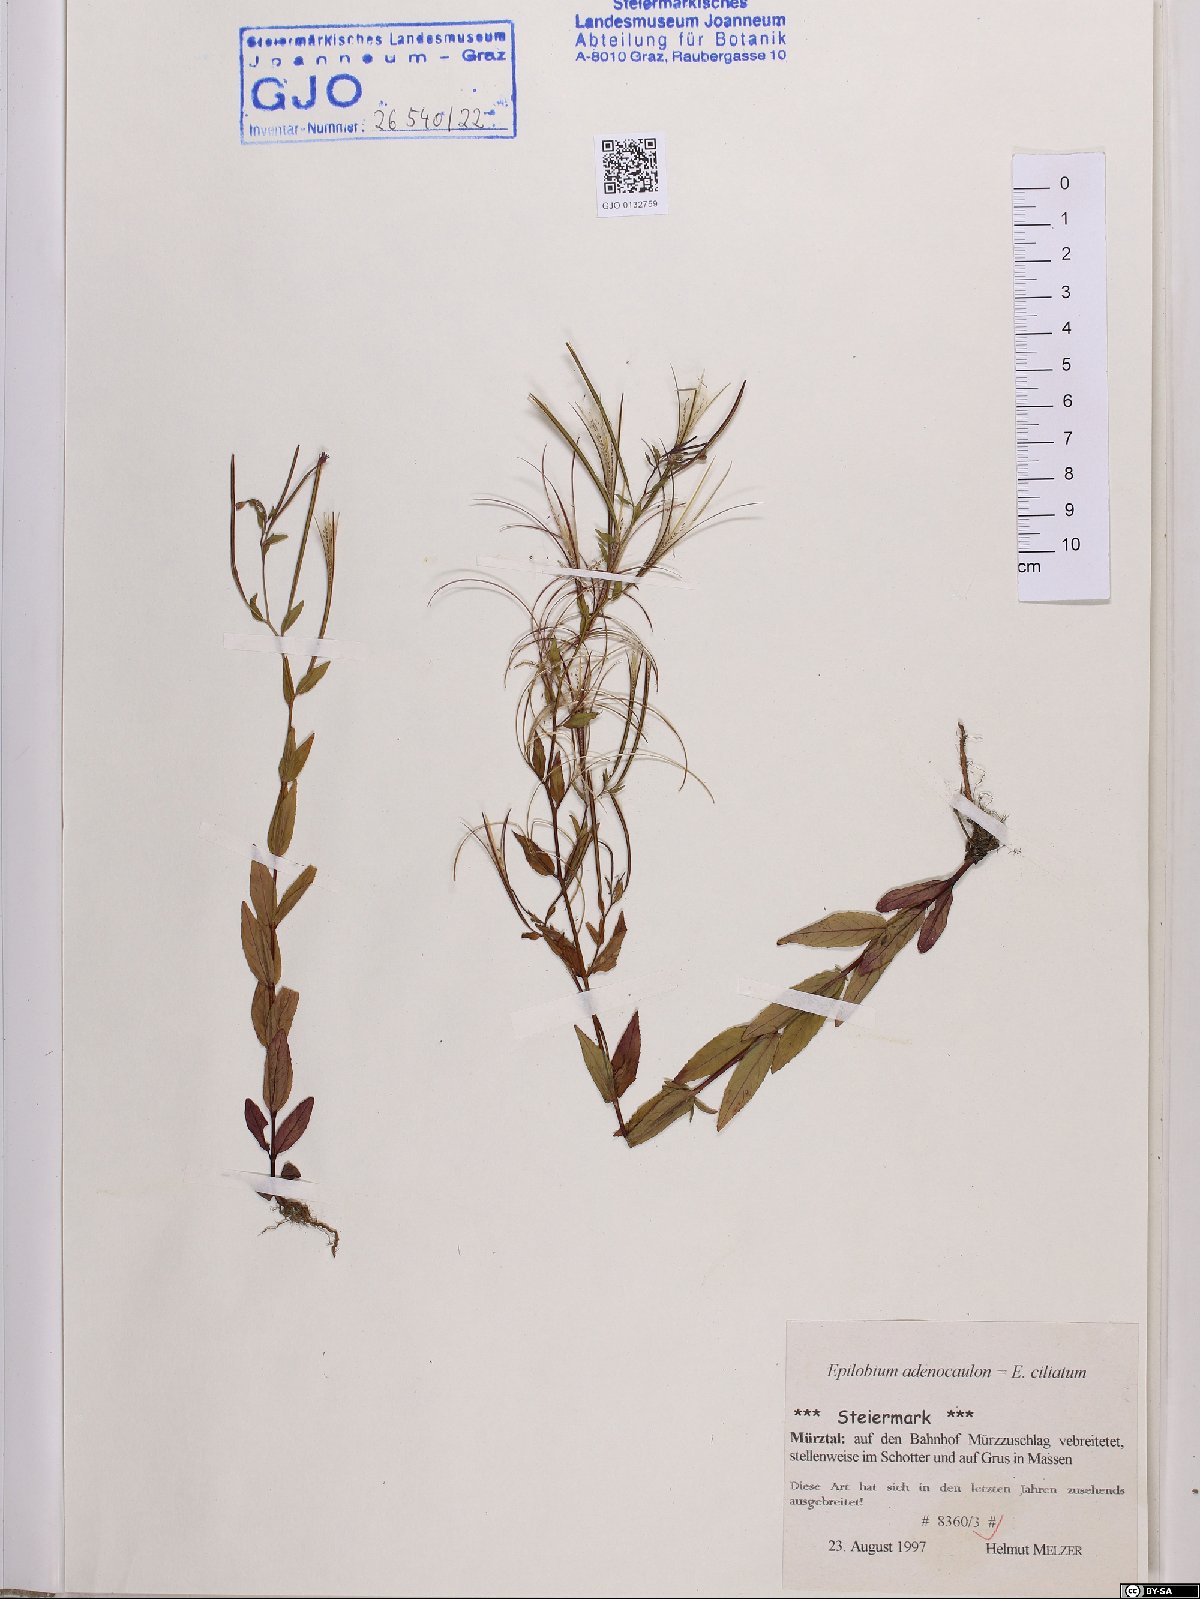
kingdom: Plantae
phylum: Tracheophyta
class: Magnoliopsida
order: Myrtales
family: Onagraceae
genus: Epilobium
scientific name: Epilobium ciliatum
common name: American willowherb
